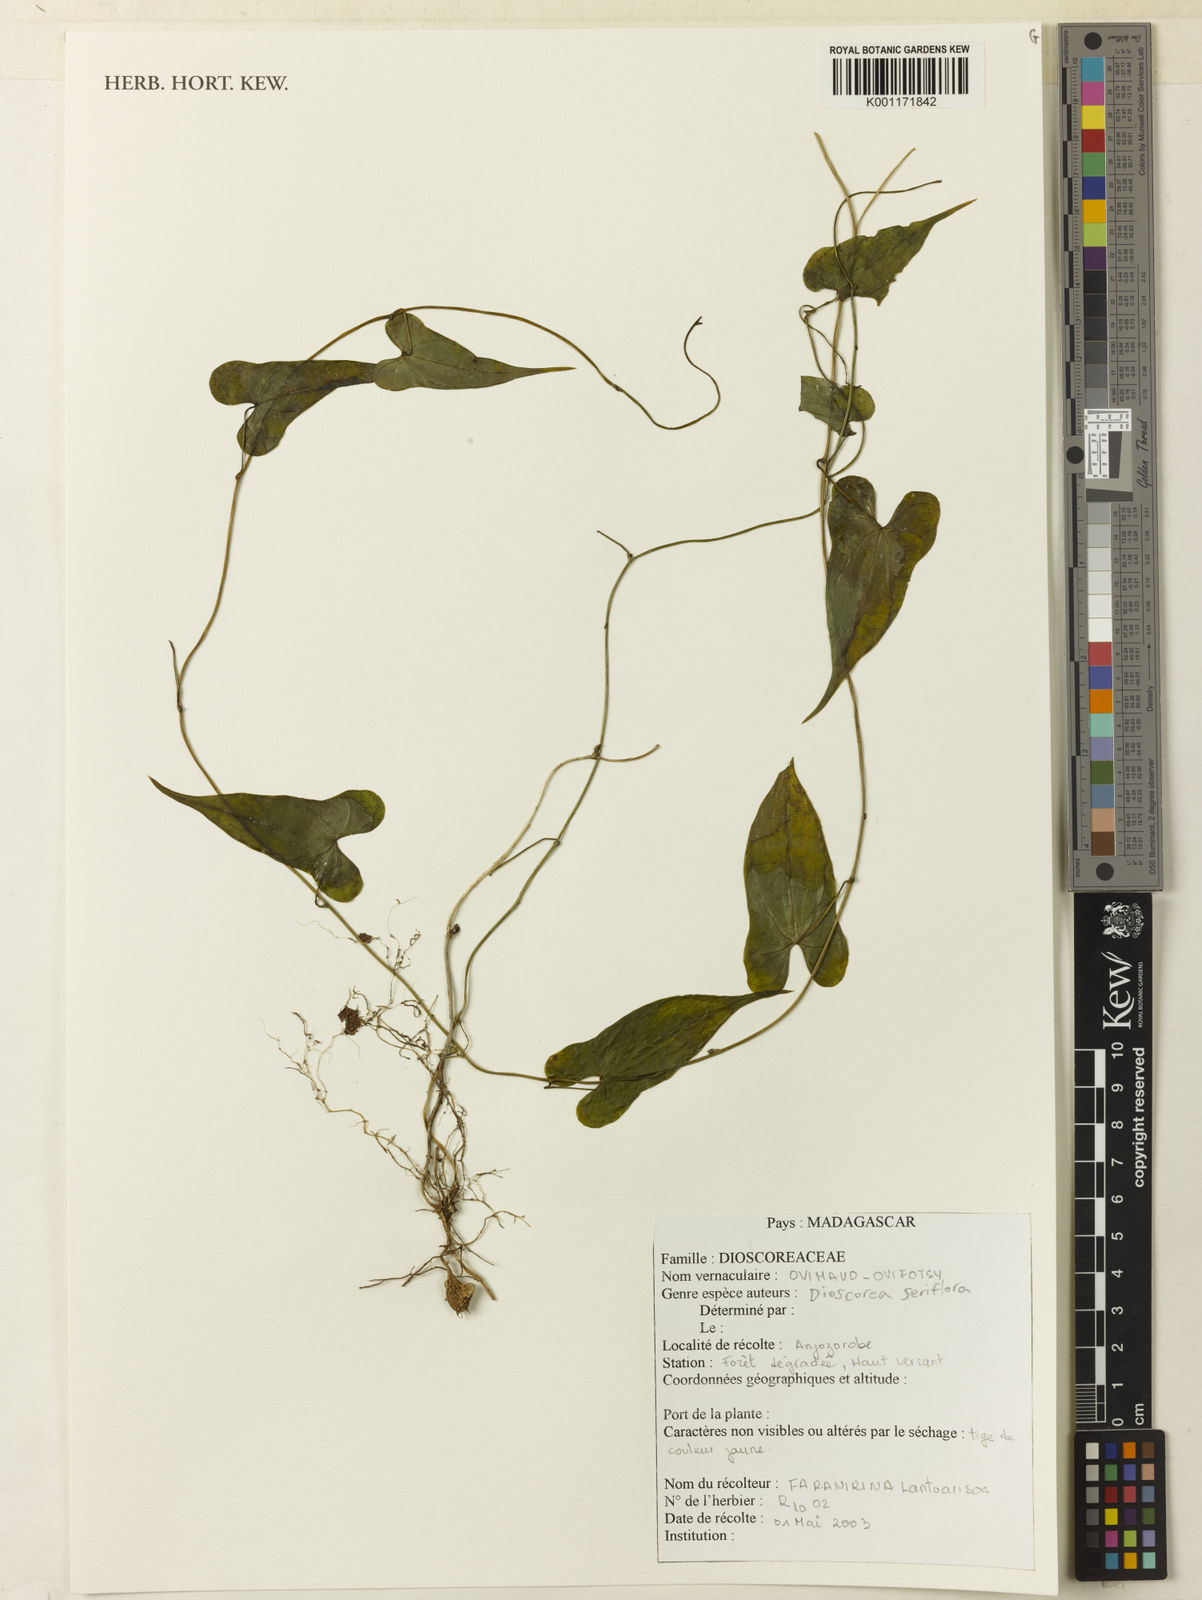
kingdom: Plantae
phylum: Tracheophyta
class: Liliopsida
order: Dioscoreales
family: Dioscoreaceae
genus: Dioscorea
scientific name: Dioscorea seriflora
